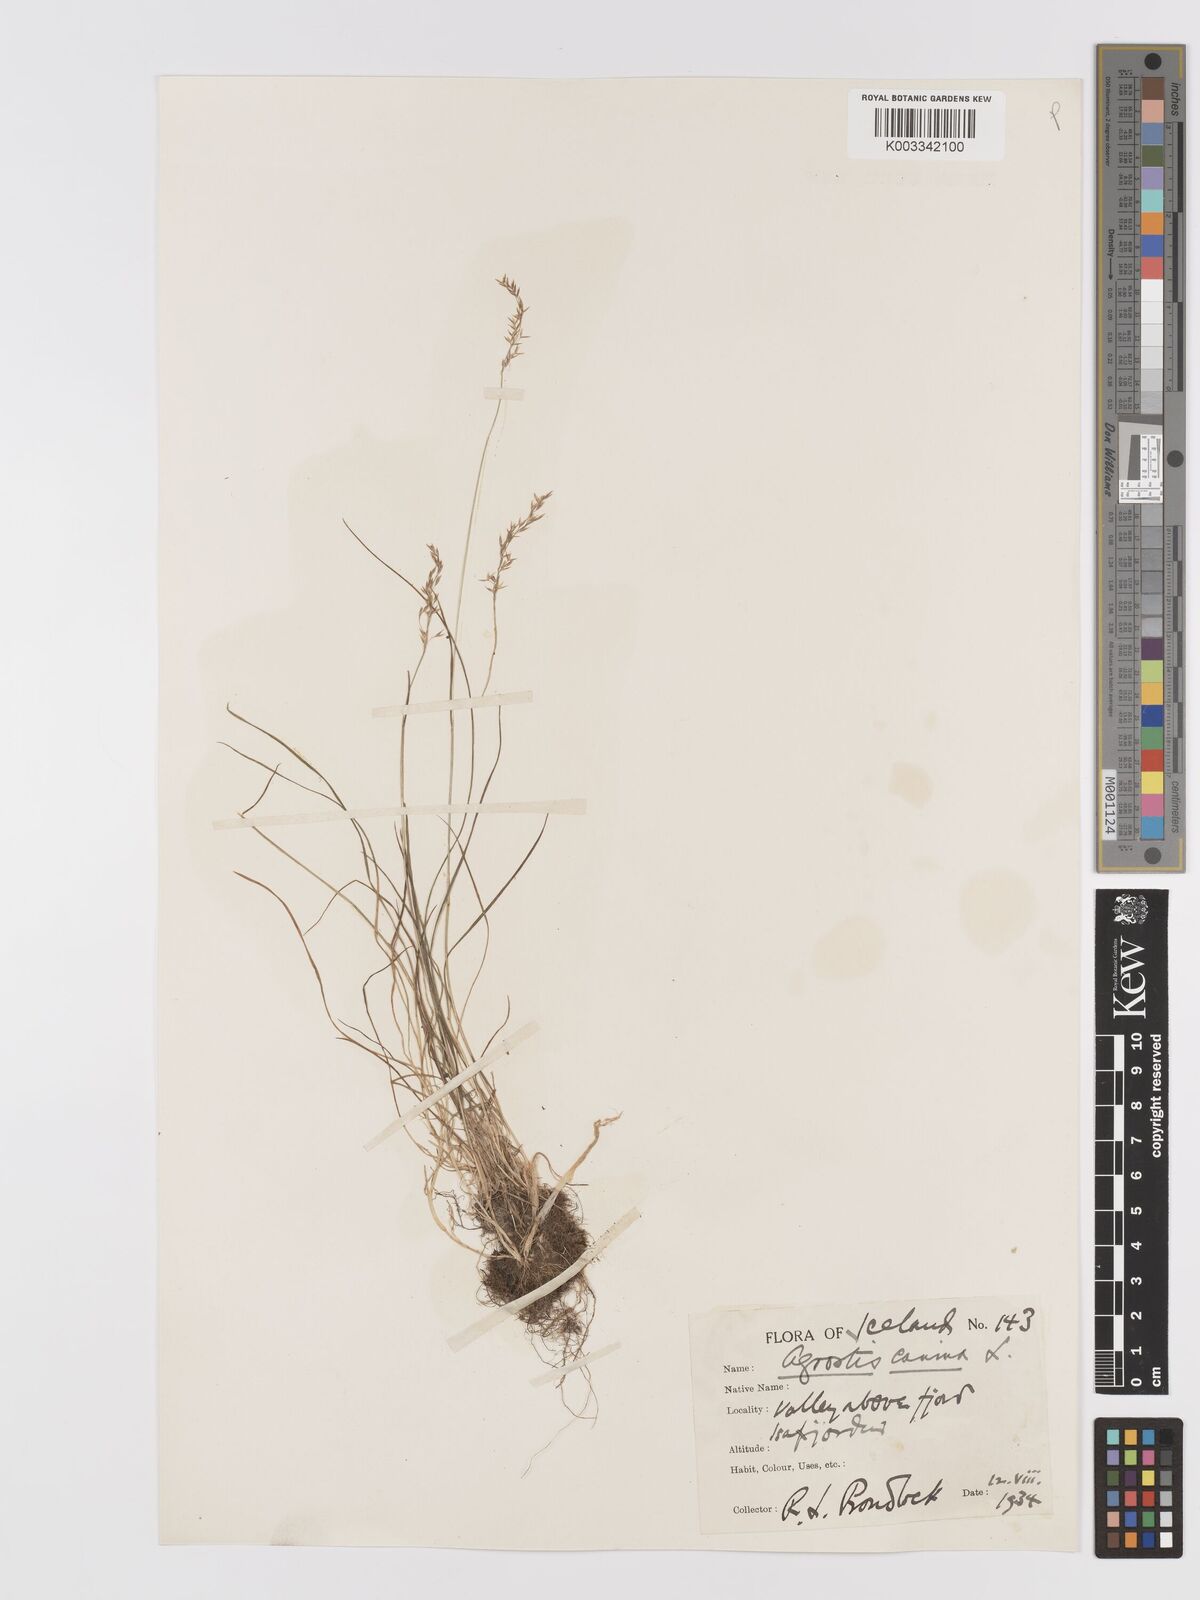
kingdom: Plantae
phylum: Tracheophyta
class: Liliopsida
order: Poales
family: Poaceae
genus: Agrostis
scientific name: Agrostis stolonifera
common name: Creeping bentgrass
